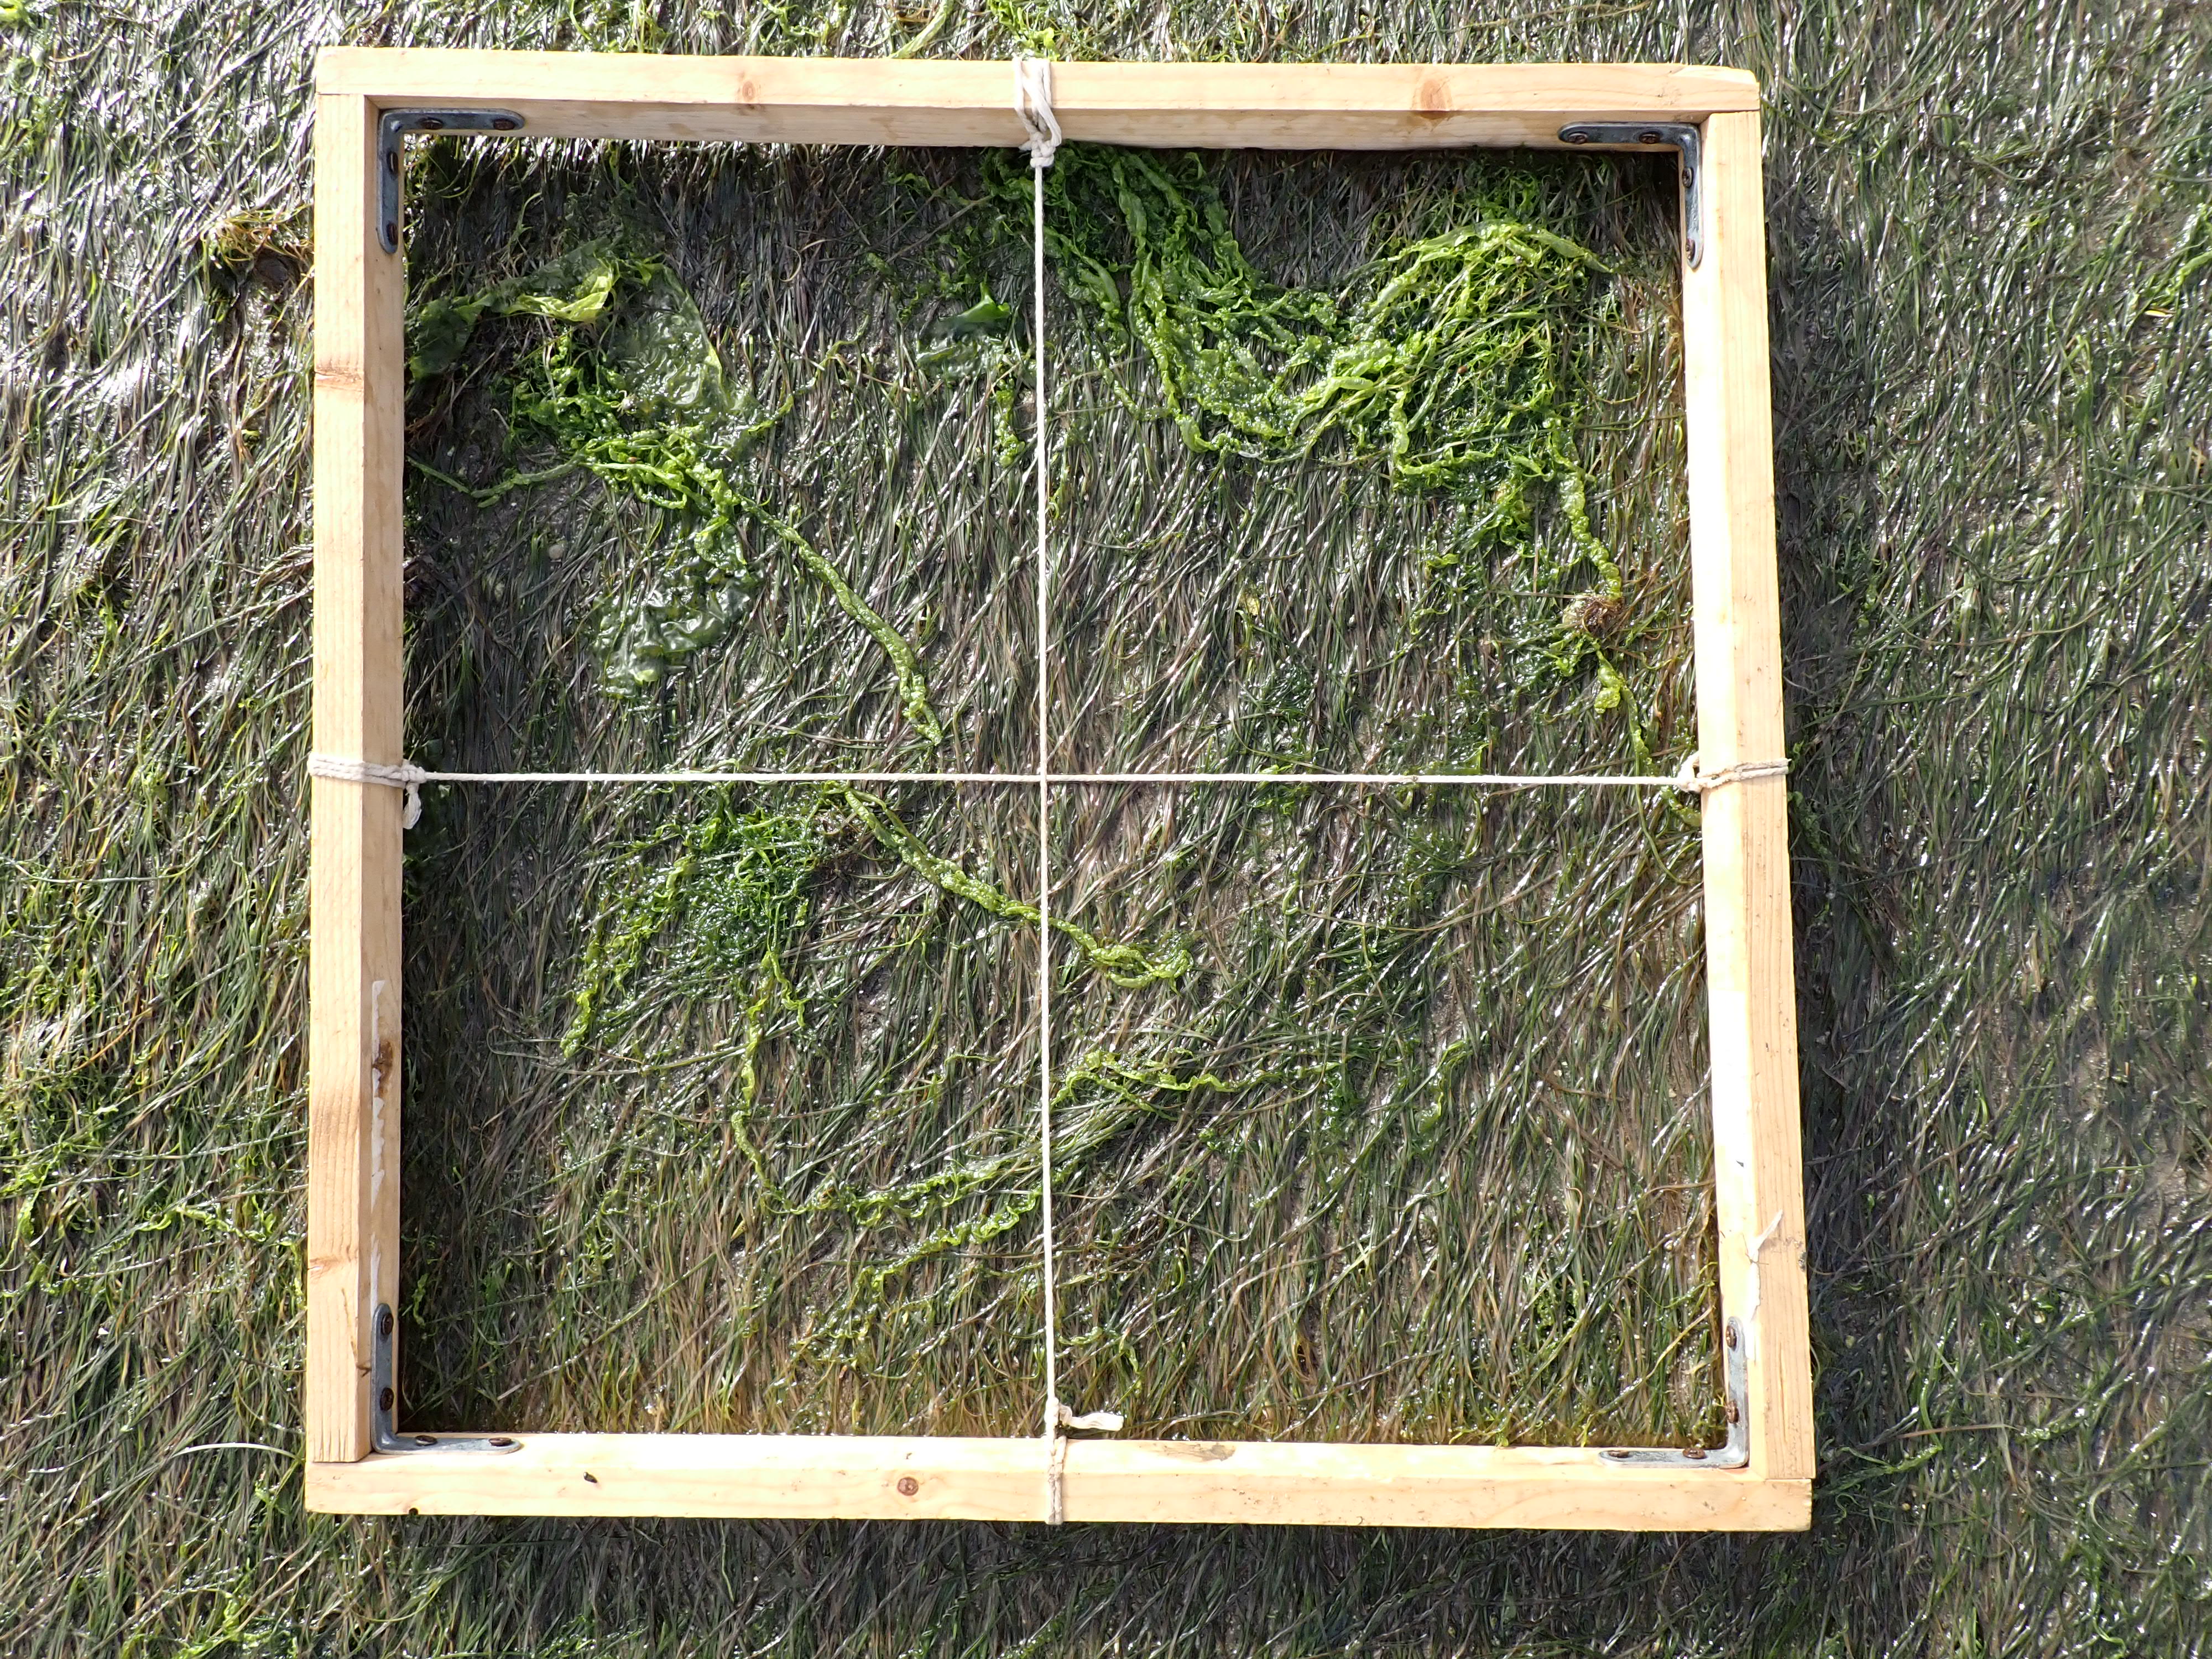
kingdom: Plantae
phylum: Tracheophyta
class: Liliopsida
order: Alismatales
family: Zosteraceae
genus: Zostera
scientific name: Zostera noltii
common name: Dwarf eelgrass
